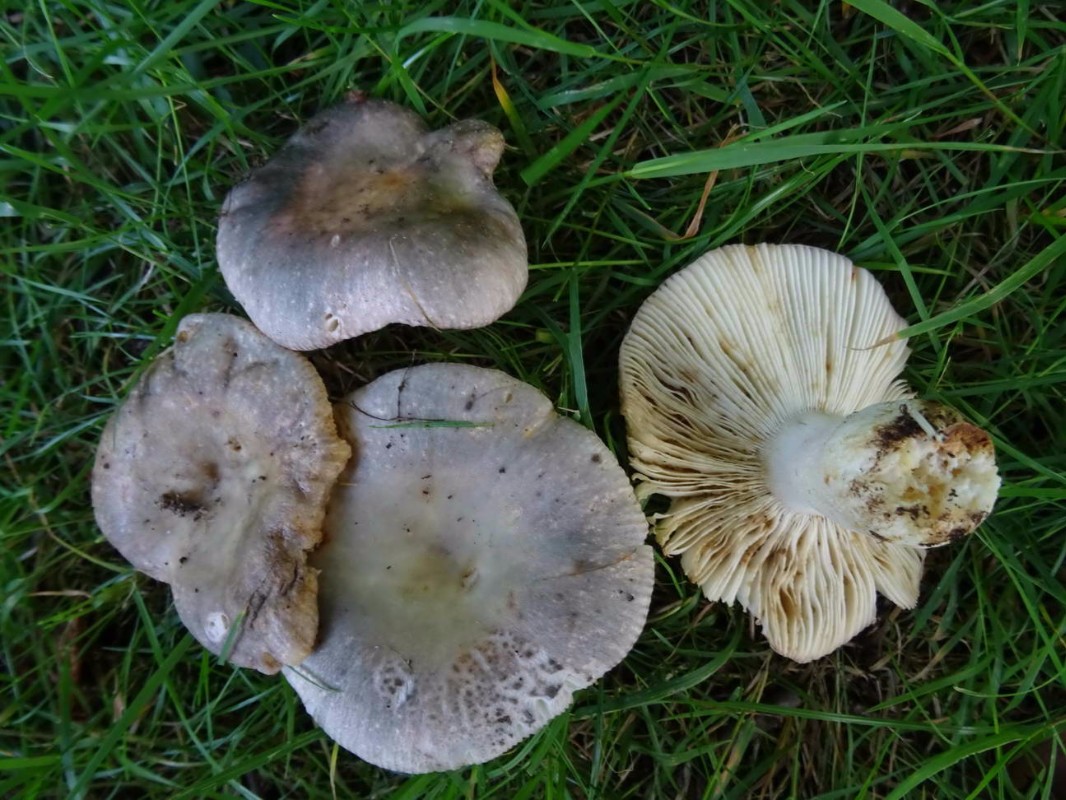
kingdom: Fungi
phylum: Basidiomycota
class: Agaricomycetes
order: Russulales
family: Russulaceae
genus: Russula
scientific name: Russula ionochlora
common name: violetgrøn skørhat
